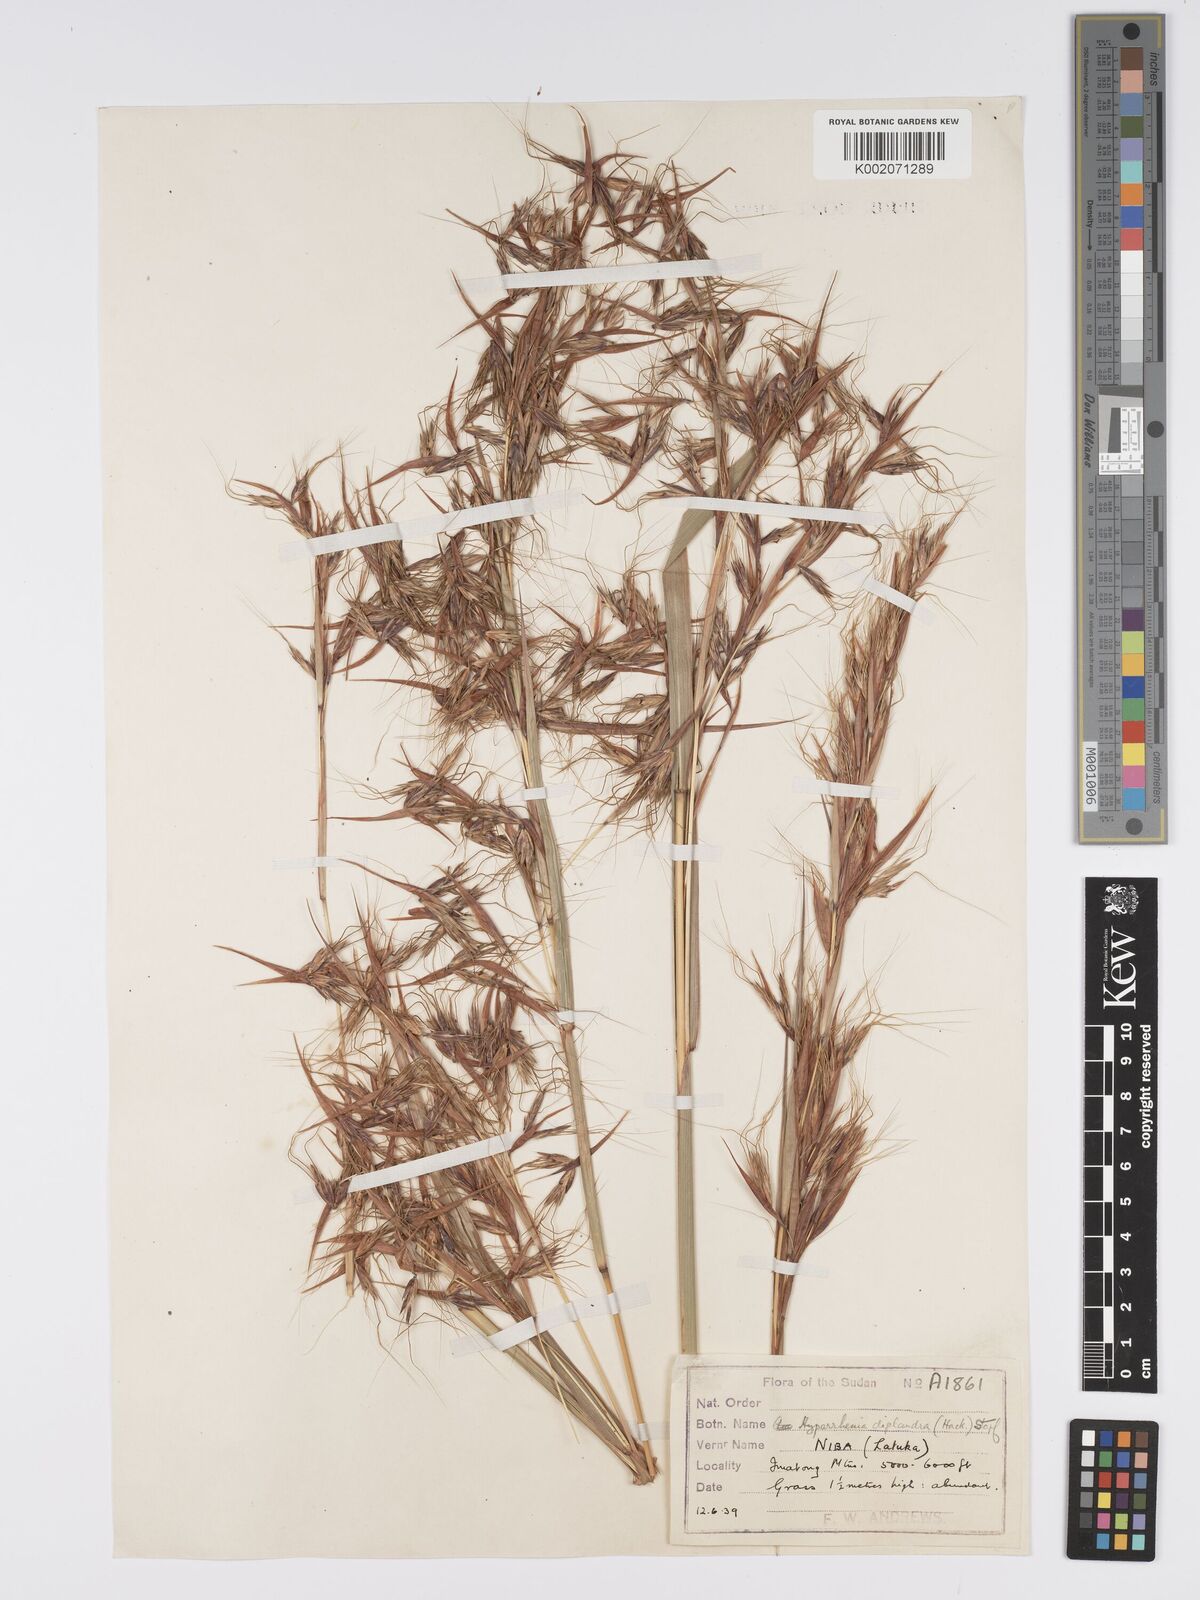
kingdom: Plantae
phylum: Tracheophyta
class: Liliopsida
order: Poales
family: Poaceae
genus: Hyparrhenia
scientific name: Hyparrhenia diplandra
